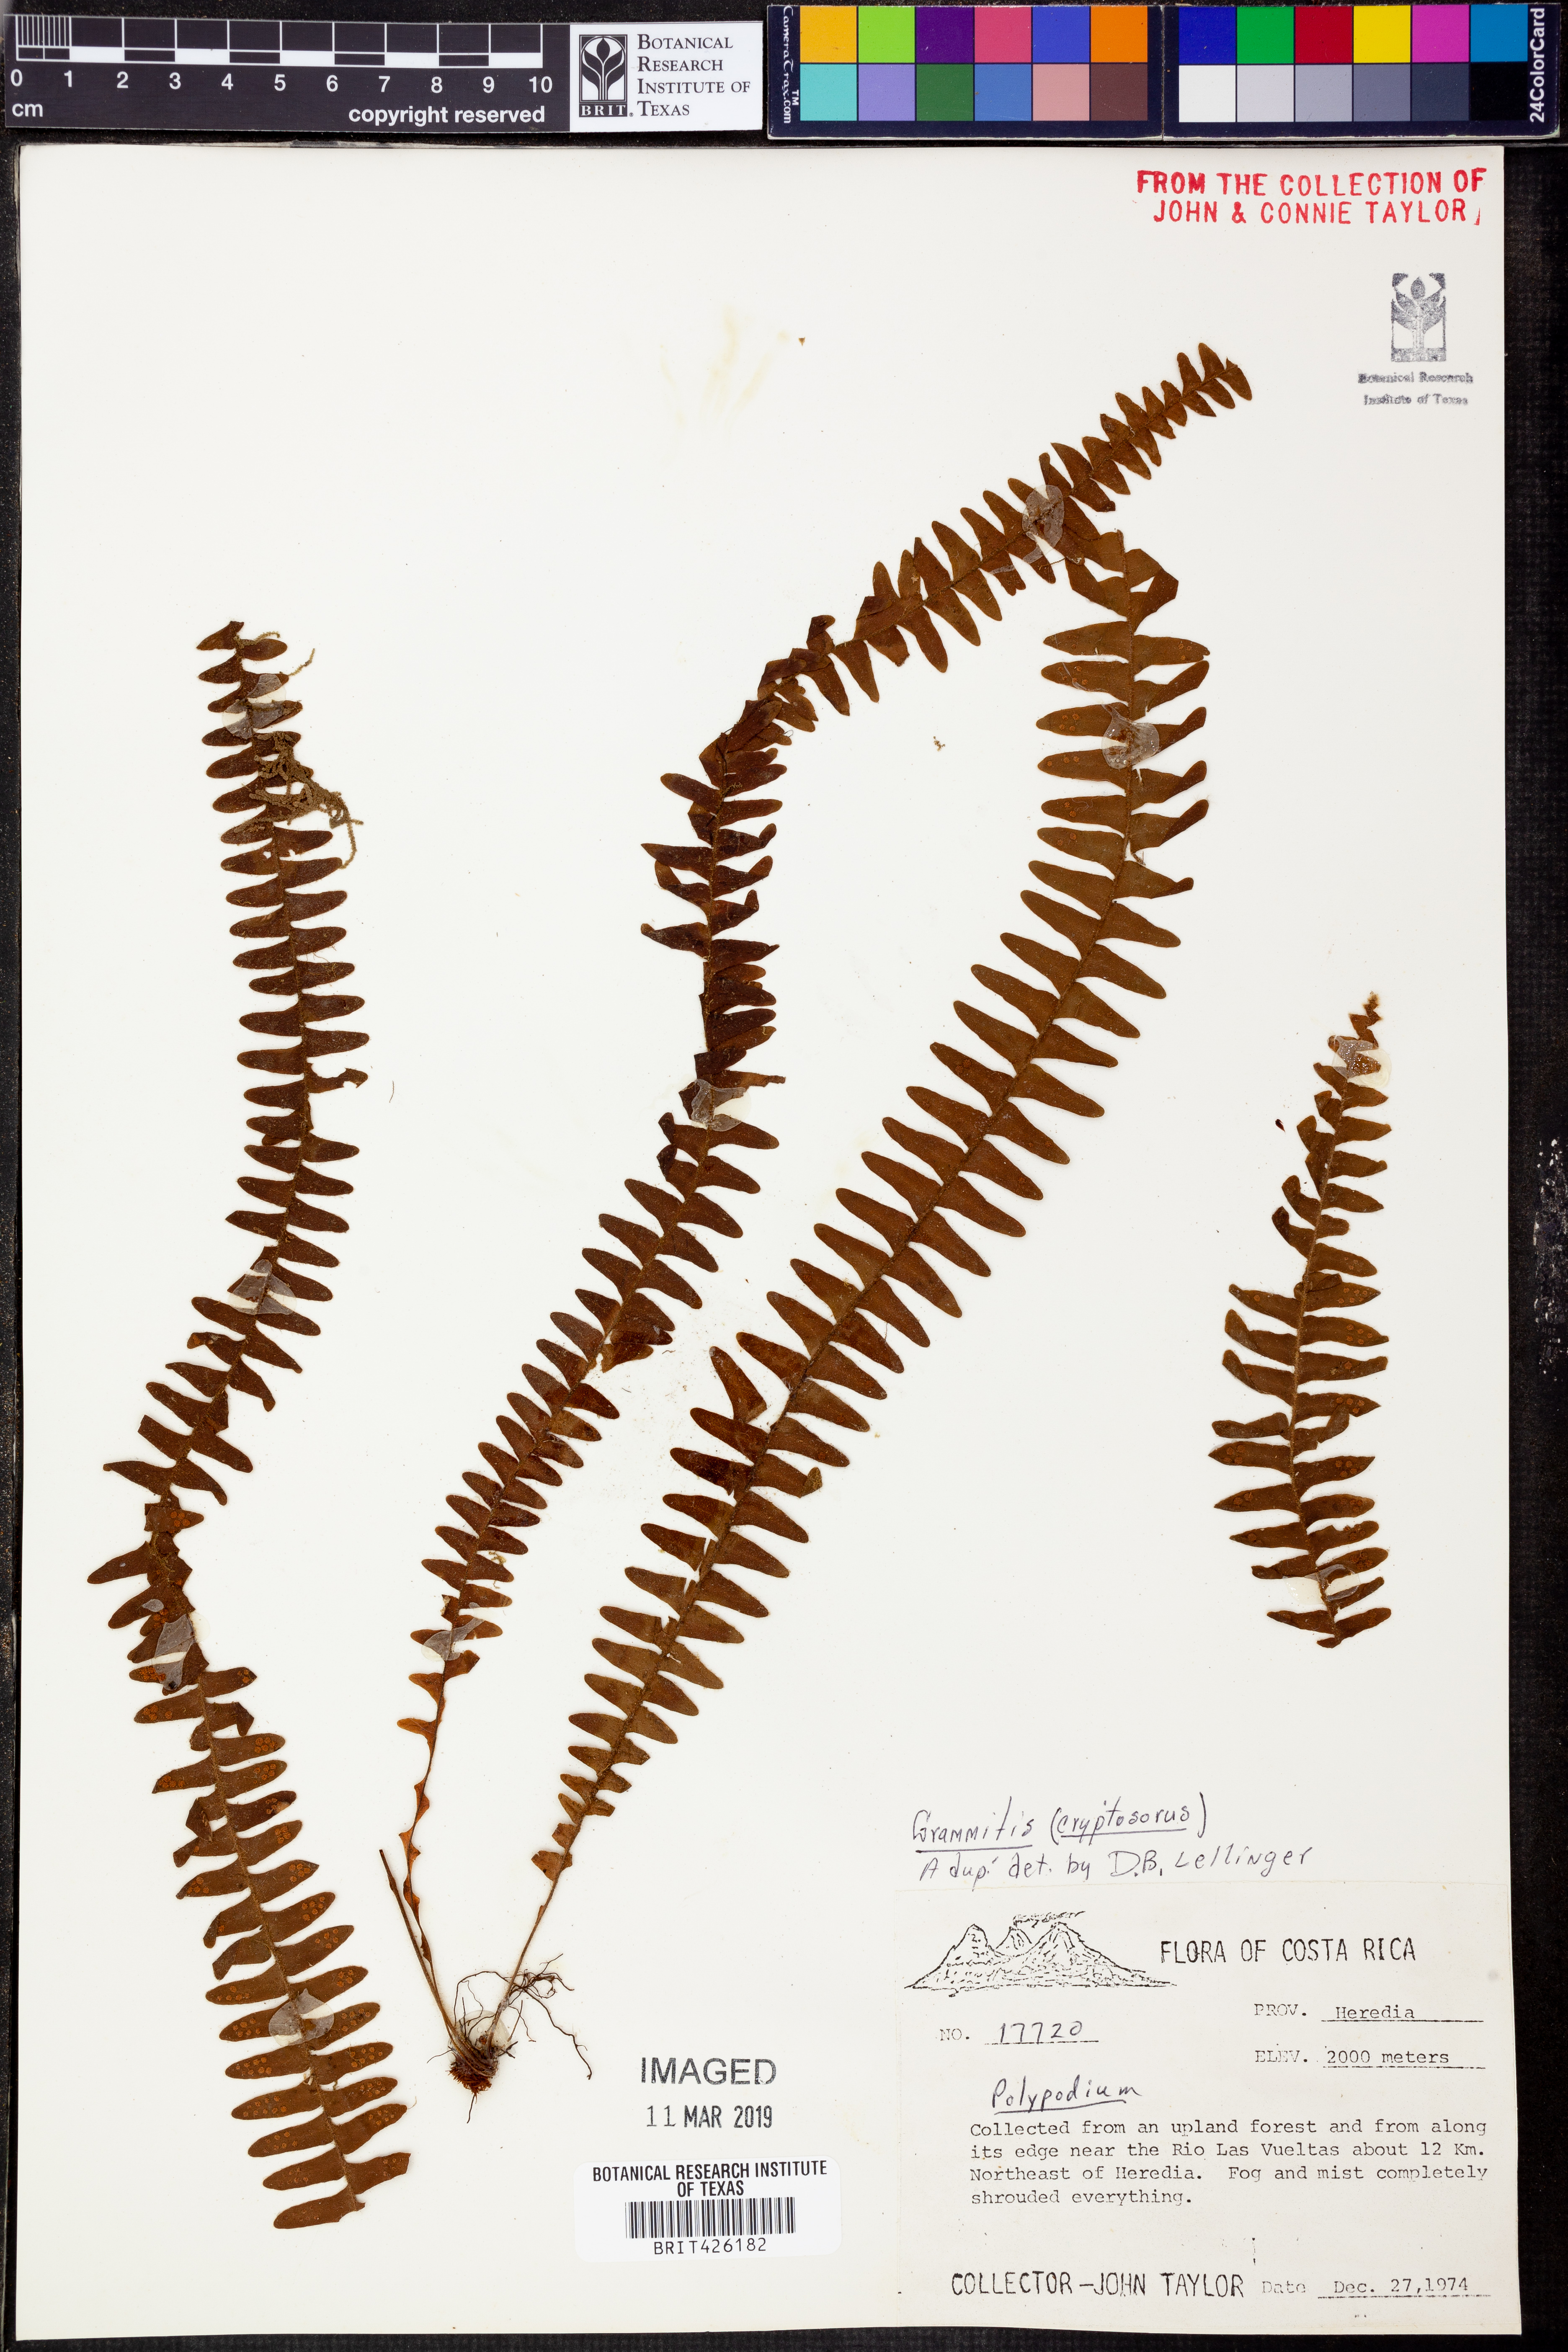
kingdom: Plantae
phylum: Tracheophyta
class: Polypodiopsida
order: Polypodiales
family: Polypodiaceae
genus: Grammitis
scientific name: Grammitis
